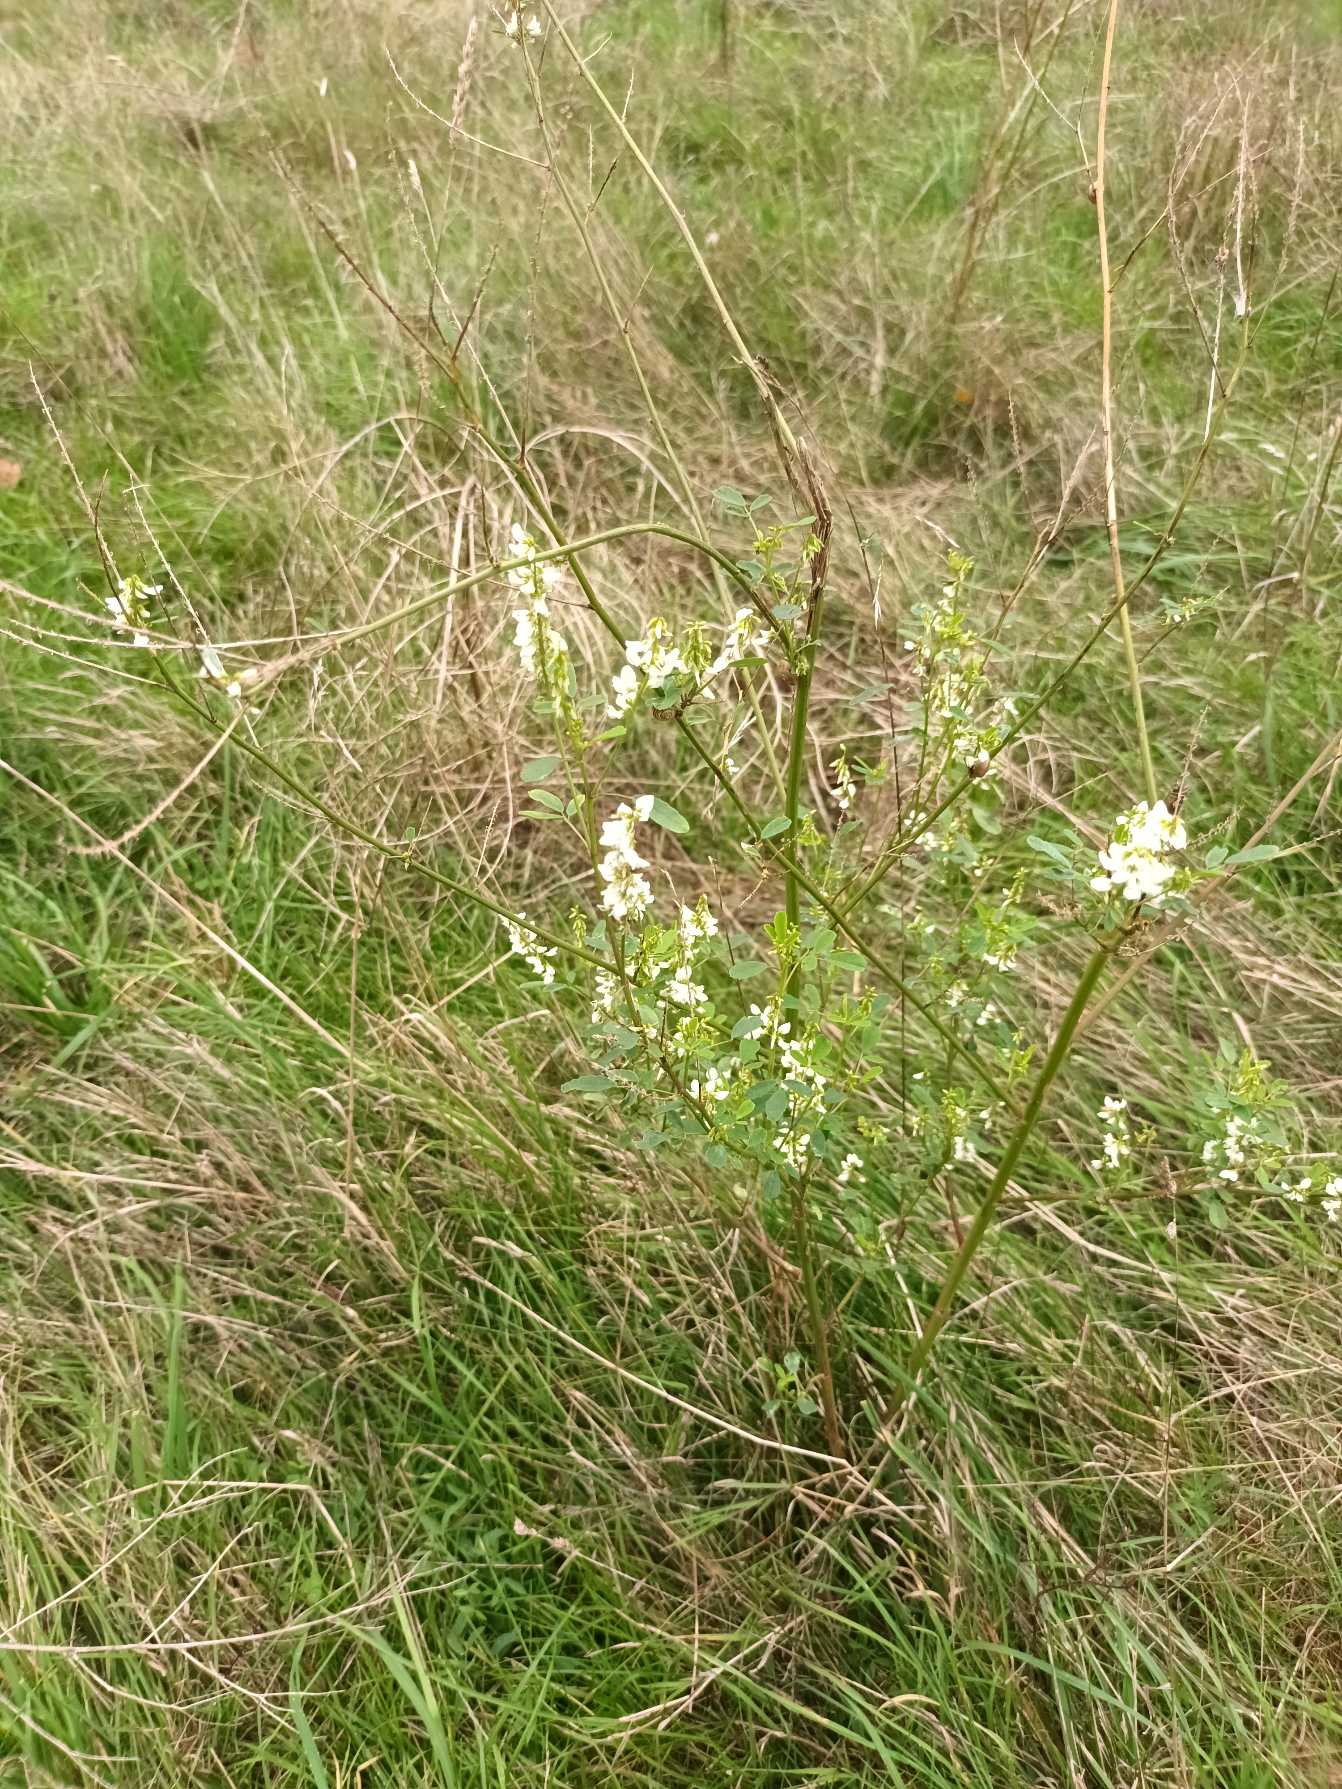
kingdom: Plantae
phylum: Tracheophyta
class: Magnoliopsida
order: Fabales
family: Fabaceae
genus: Melilotus
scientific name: Melilotus albus
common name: Hvid stenkløver
